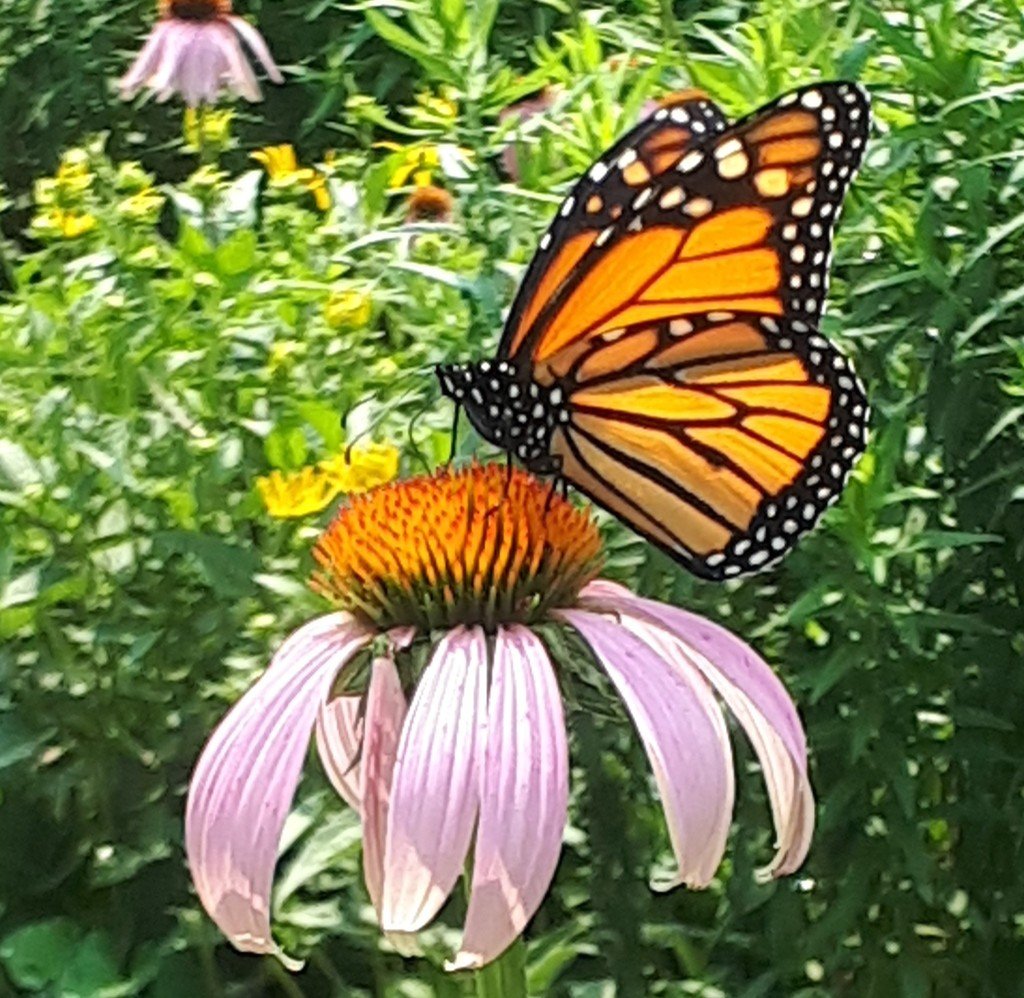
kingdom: Animalia
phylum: Arthropoda
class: Insecta
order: Lepidoptera
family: Nymphalidae
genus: Danaus
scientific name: Danaus plexippus
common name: Monarch
